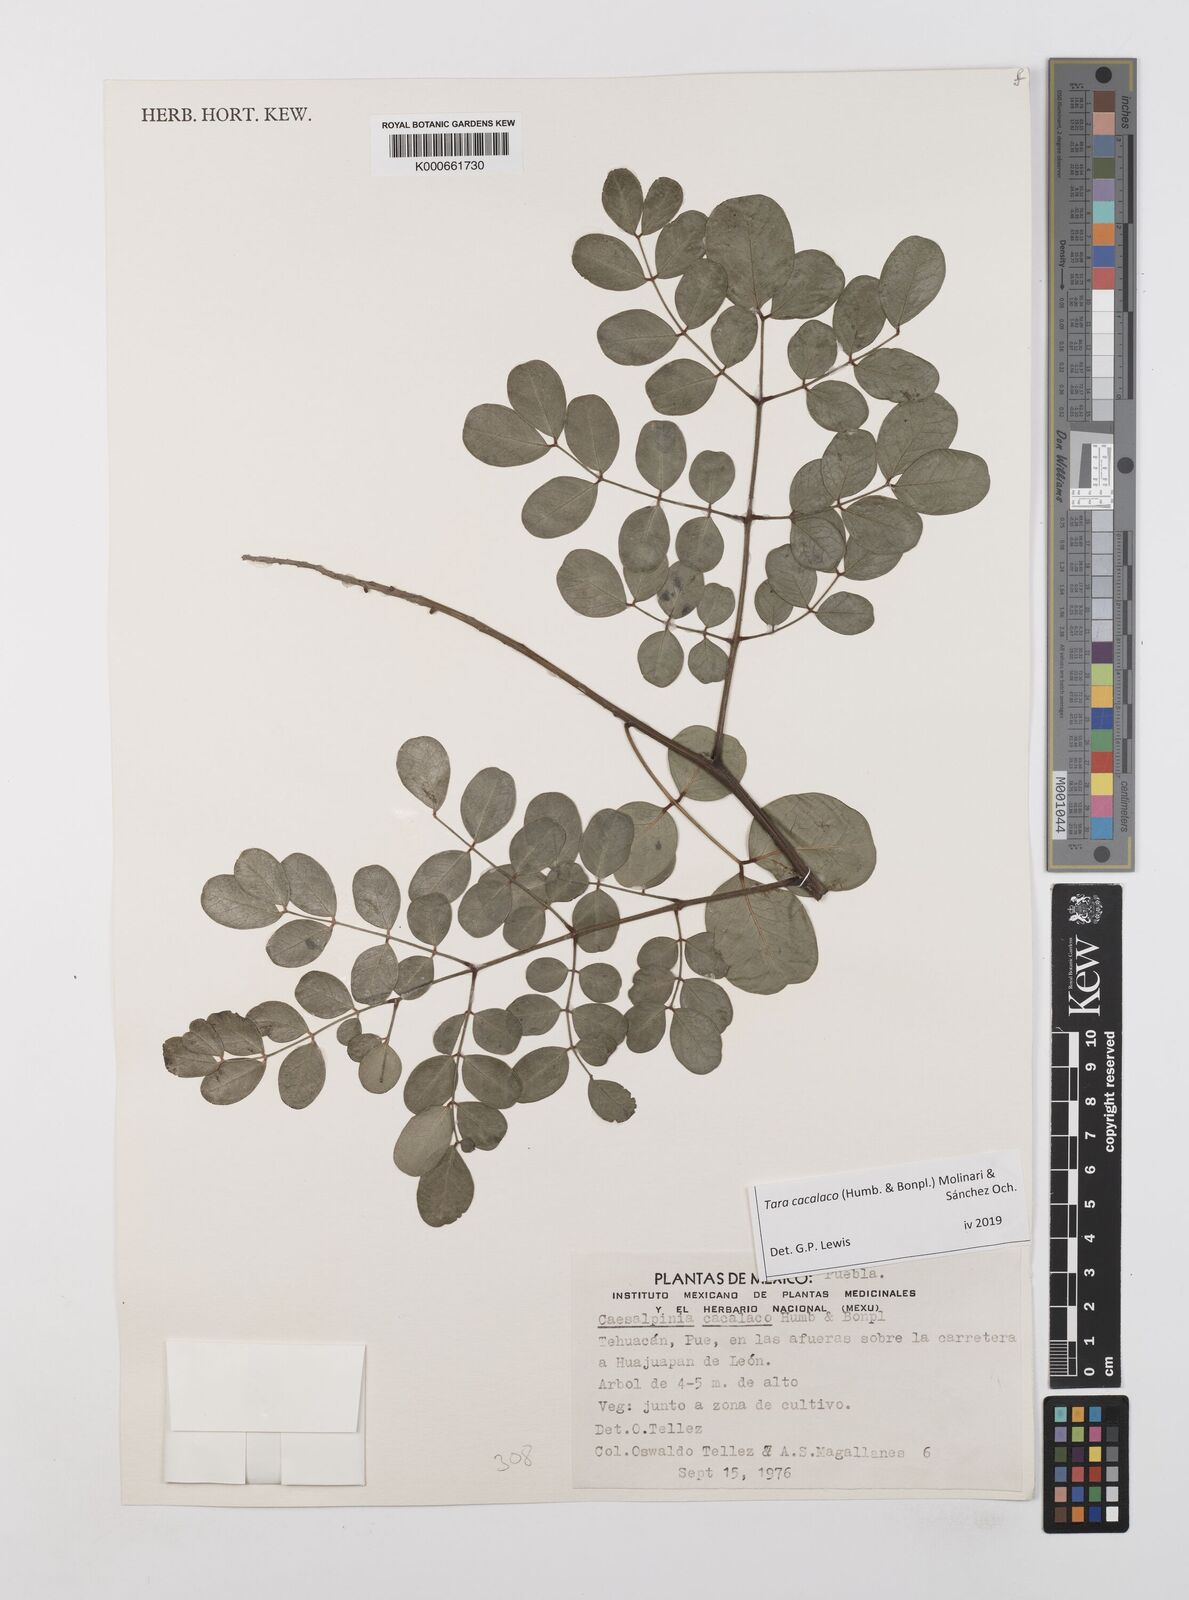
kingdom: Plantae
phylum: Tracheophyta
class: Magnoliopsida
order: Fabales
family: Fabaceae
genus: Tara
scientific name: Tara cacalaco
